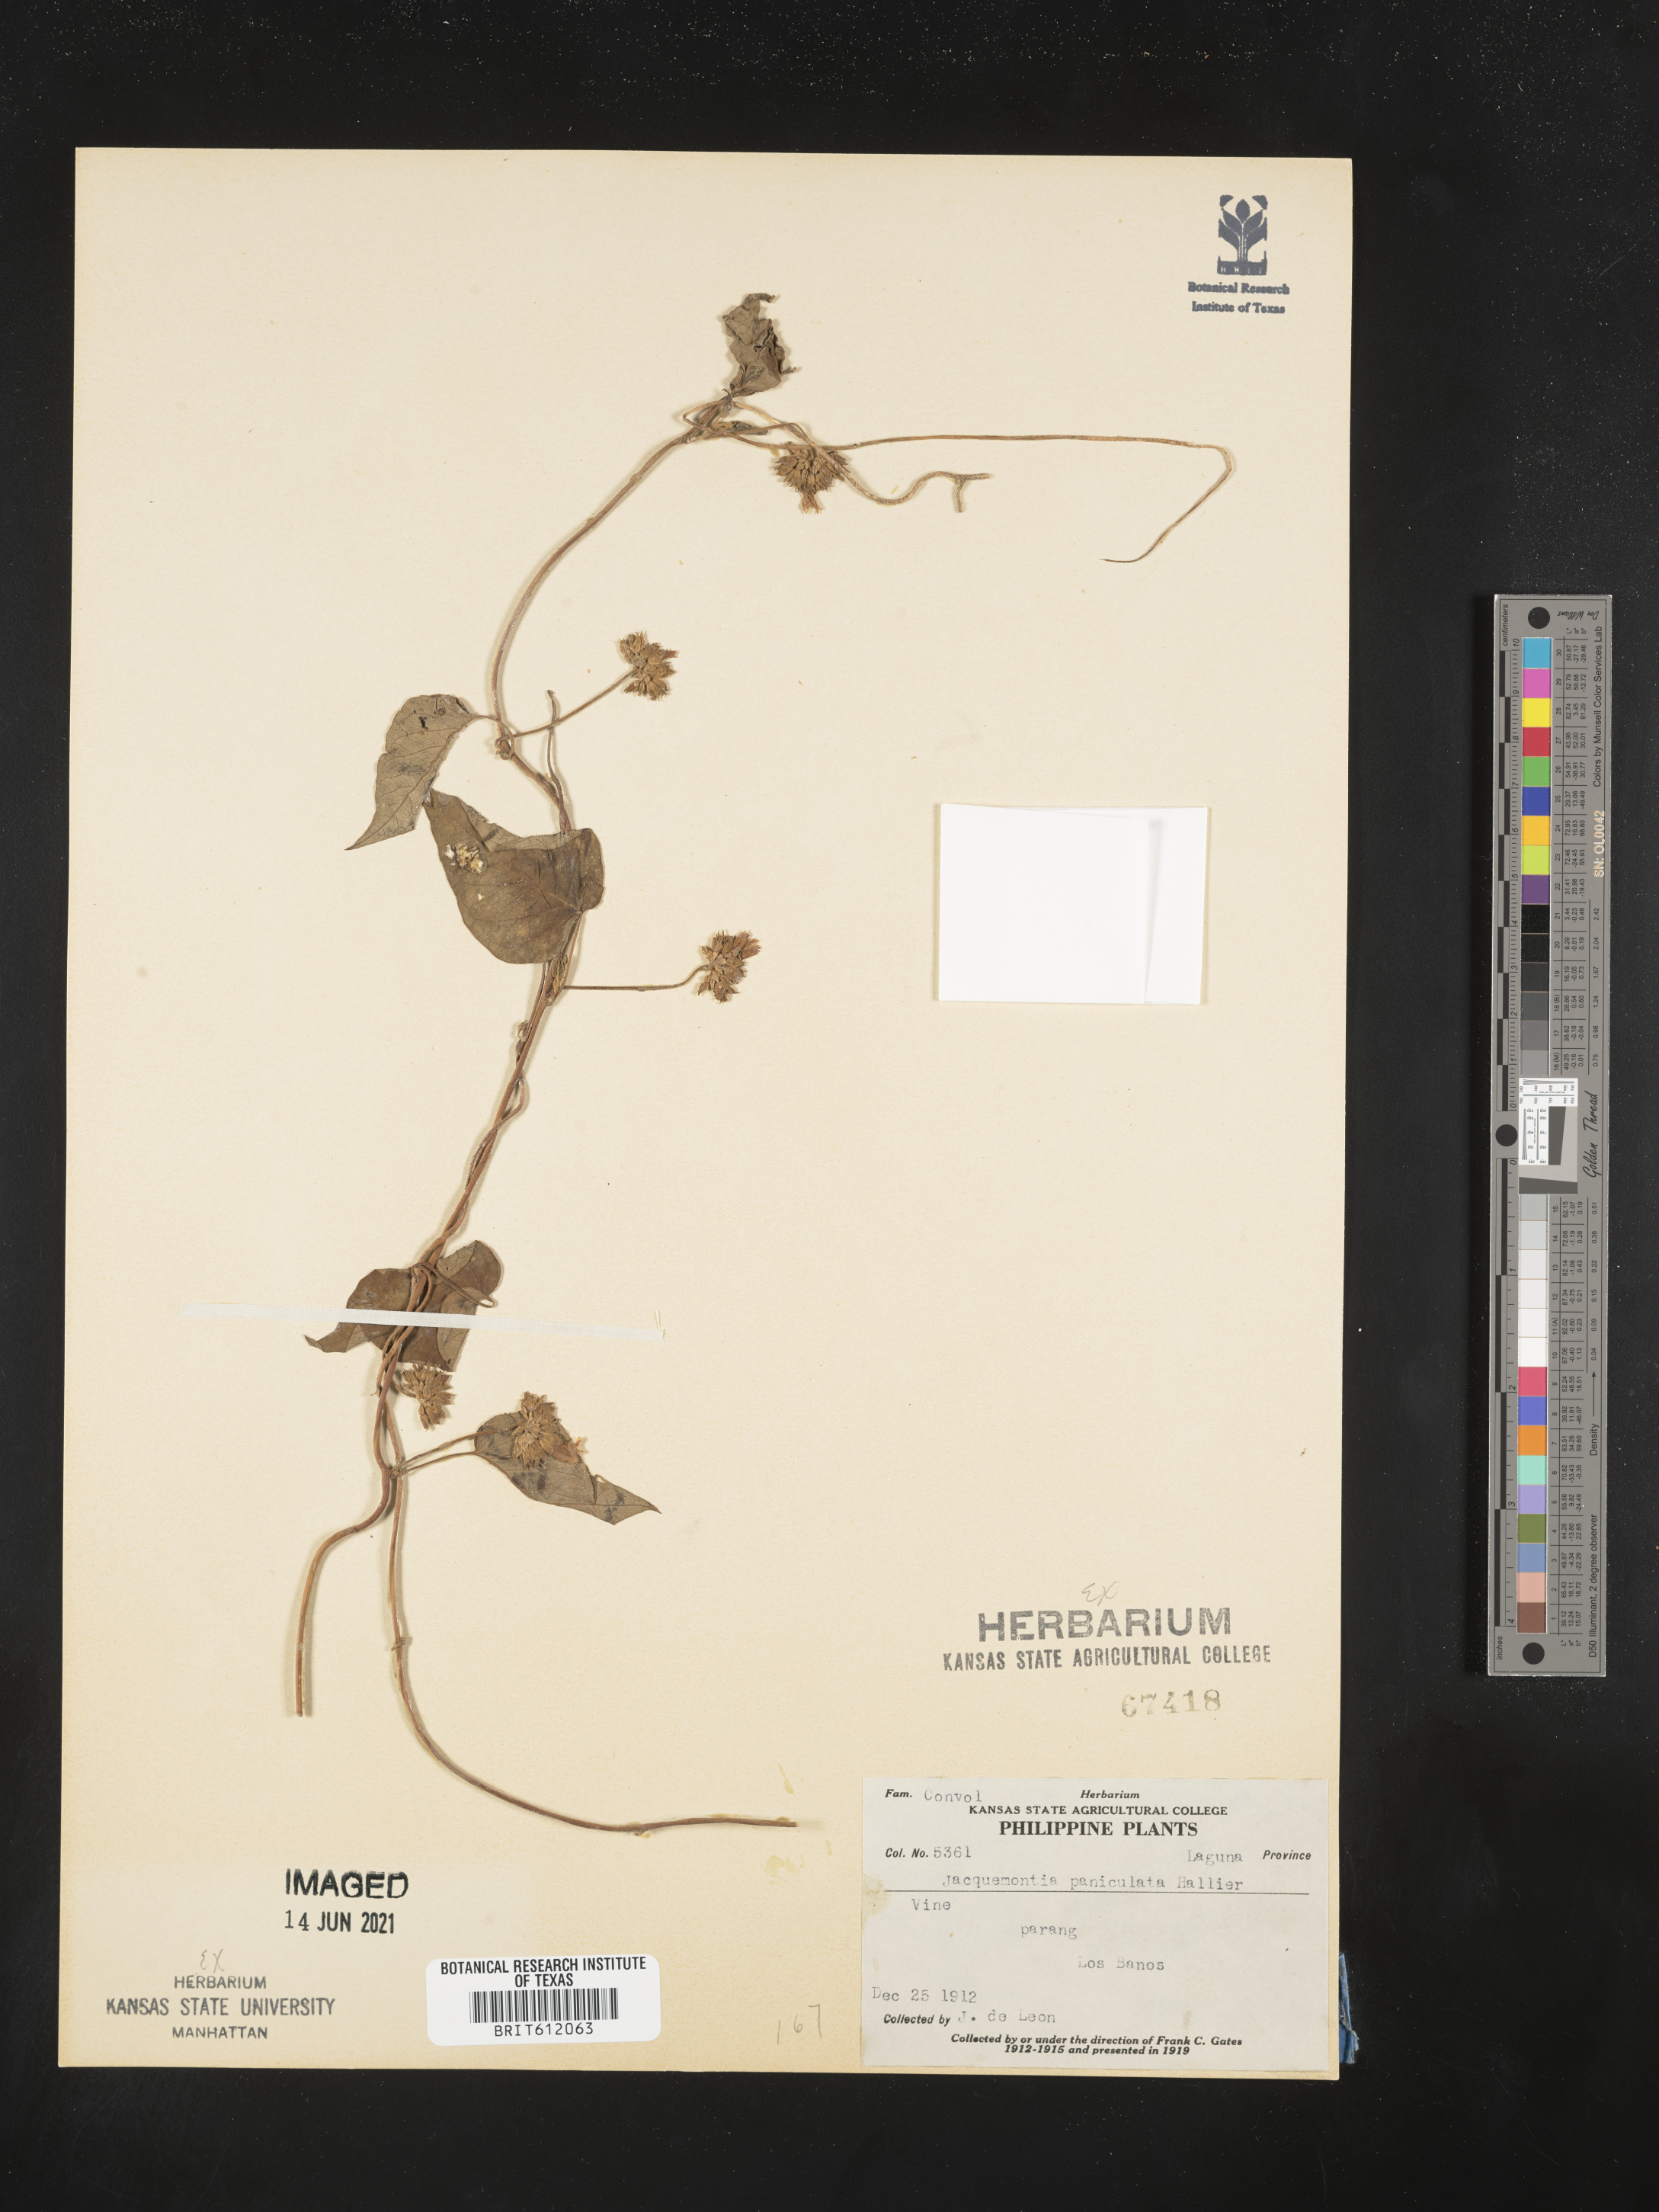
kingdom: Plantae
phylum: Tracheophyta
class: Magnoliopsida
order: Solanales
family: Convolvulaceae
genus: Jacquemontia
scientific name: Jacquemontia paniculata
